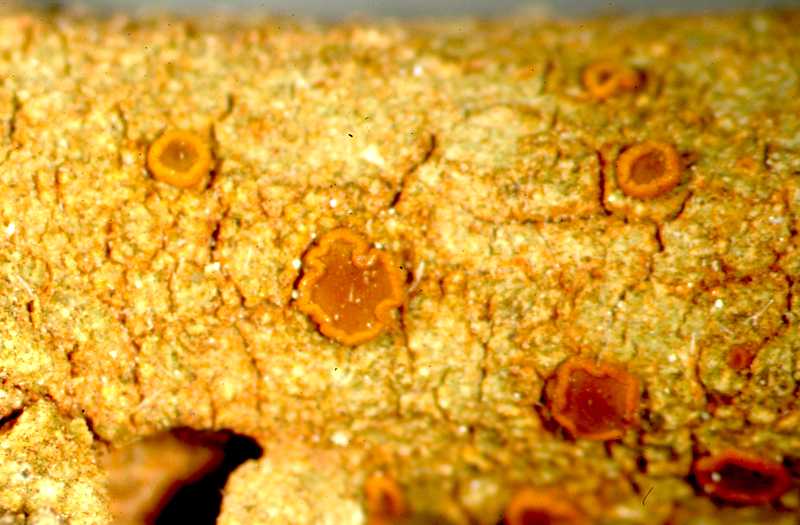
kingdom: Fungi
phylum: Ascomycota
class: Lecanoromycetes
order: Lecanorales
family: Lecanoraceae
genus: Lecidella
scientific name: Lecidella
